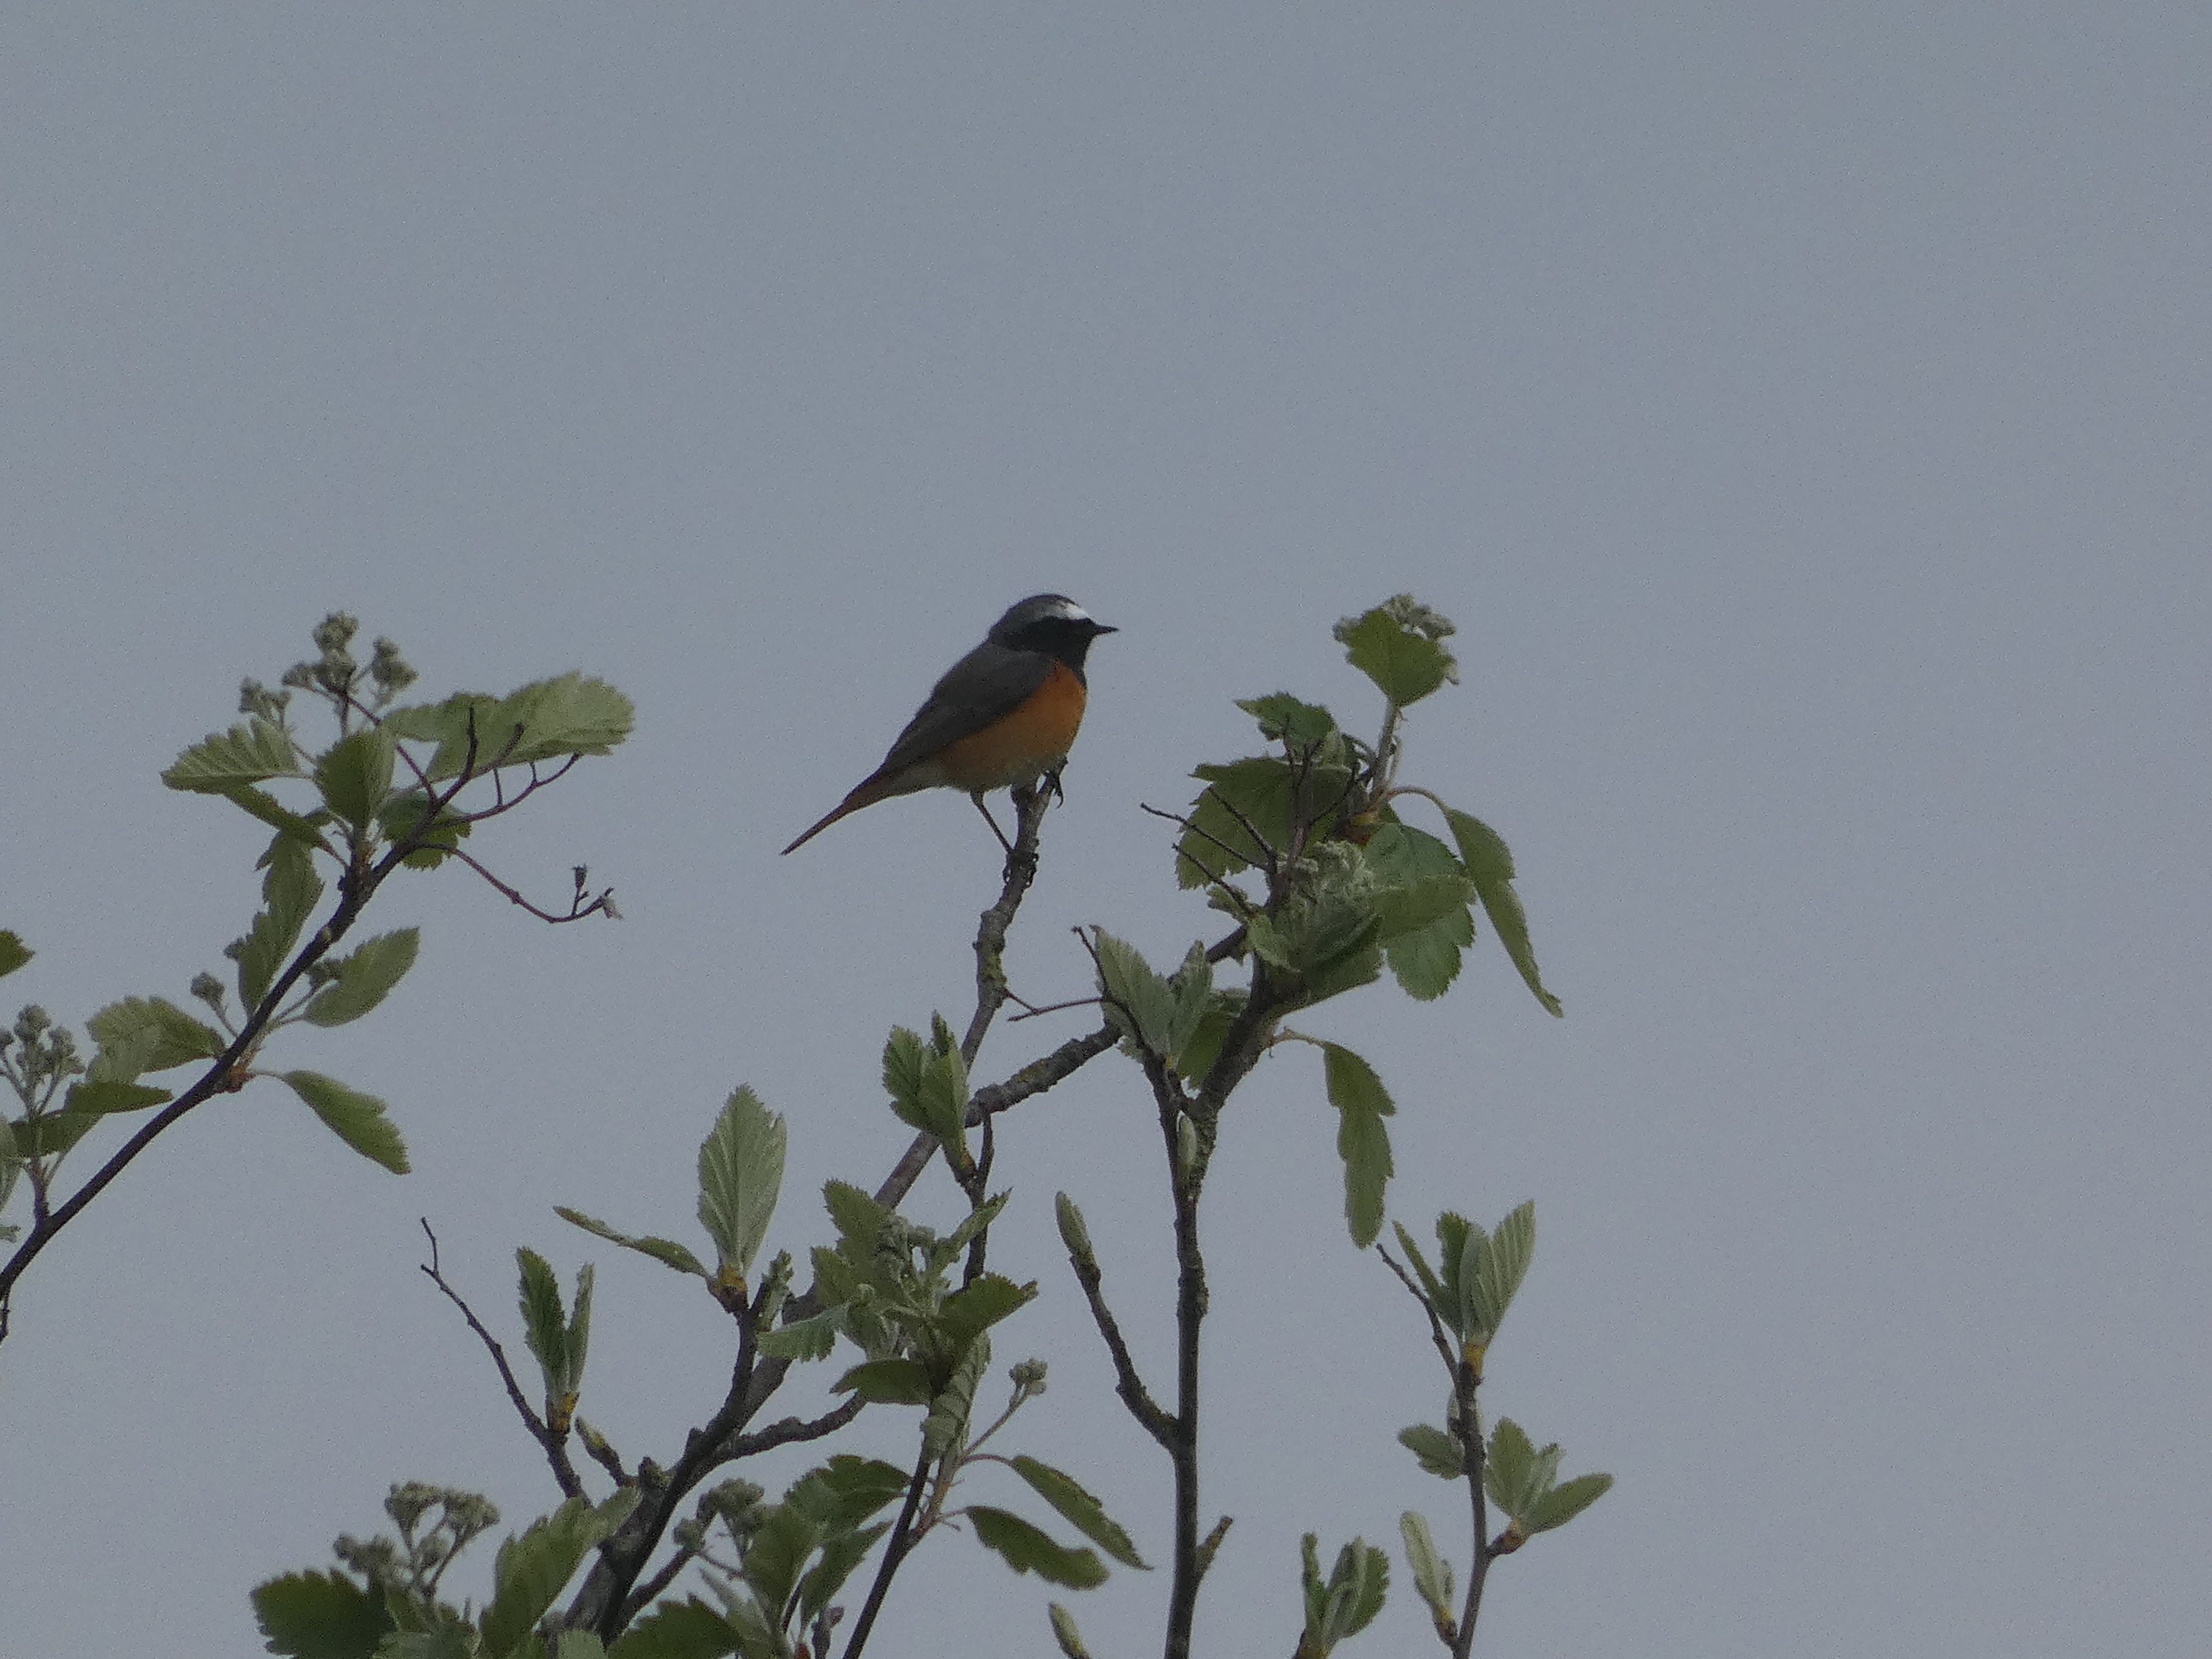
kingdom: Animalia
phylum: Chordata
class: Aves
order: Passeriformes
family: Muscicapidae
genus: Phoenicurus
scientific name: Phoenicurus phoenicurus
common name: Rødstjert
